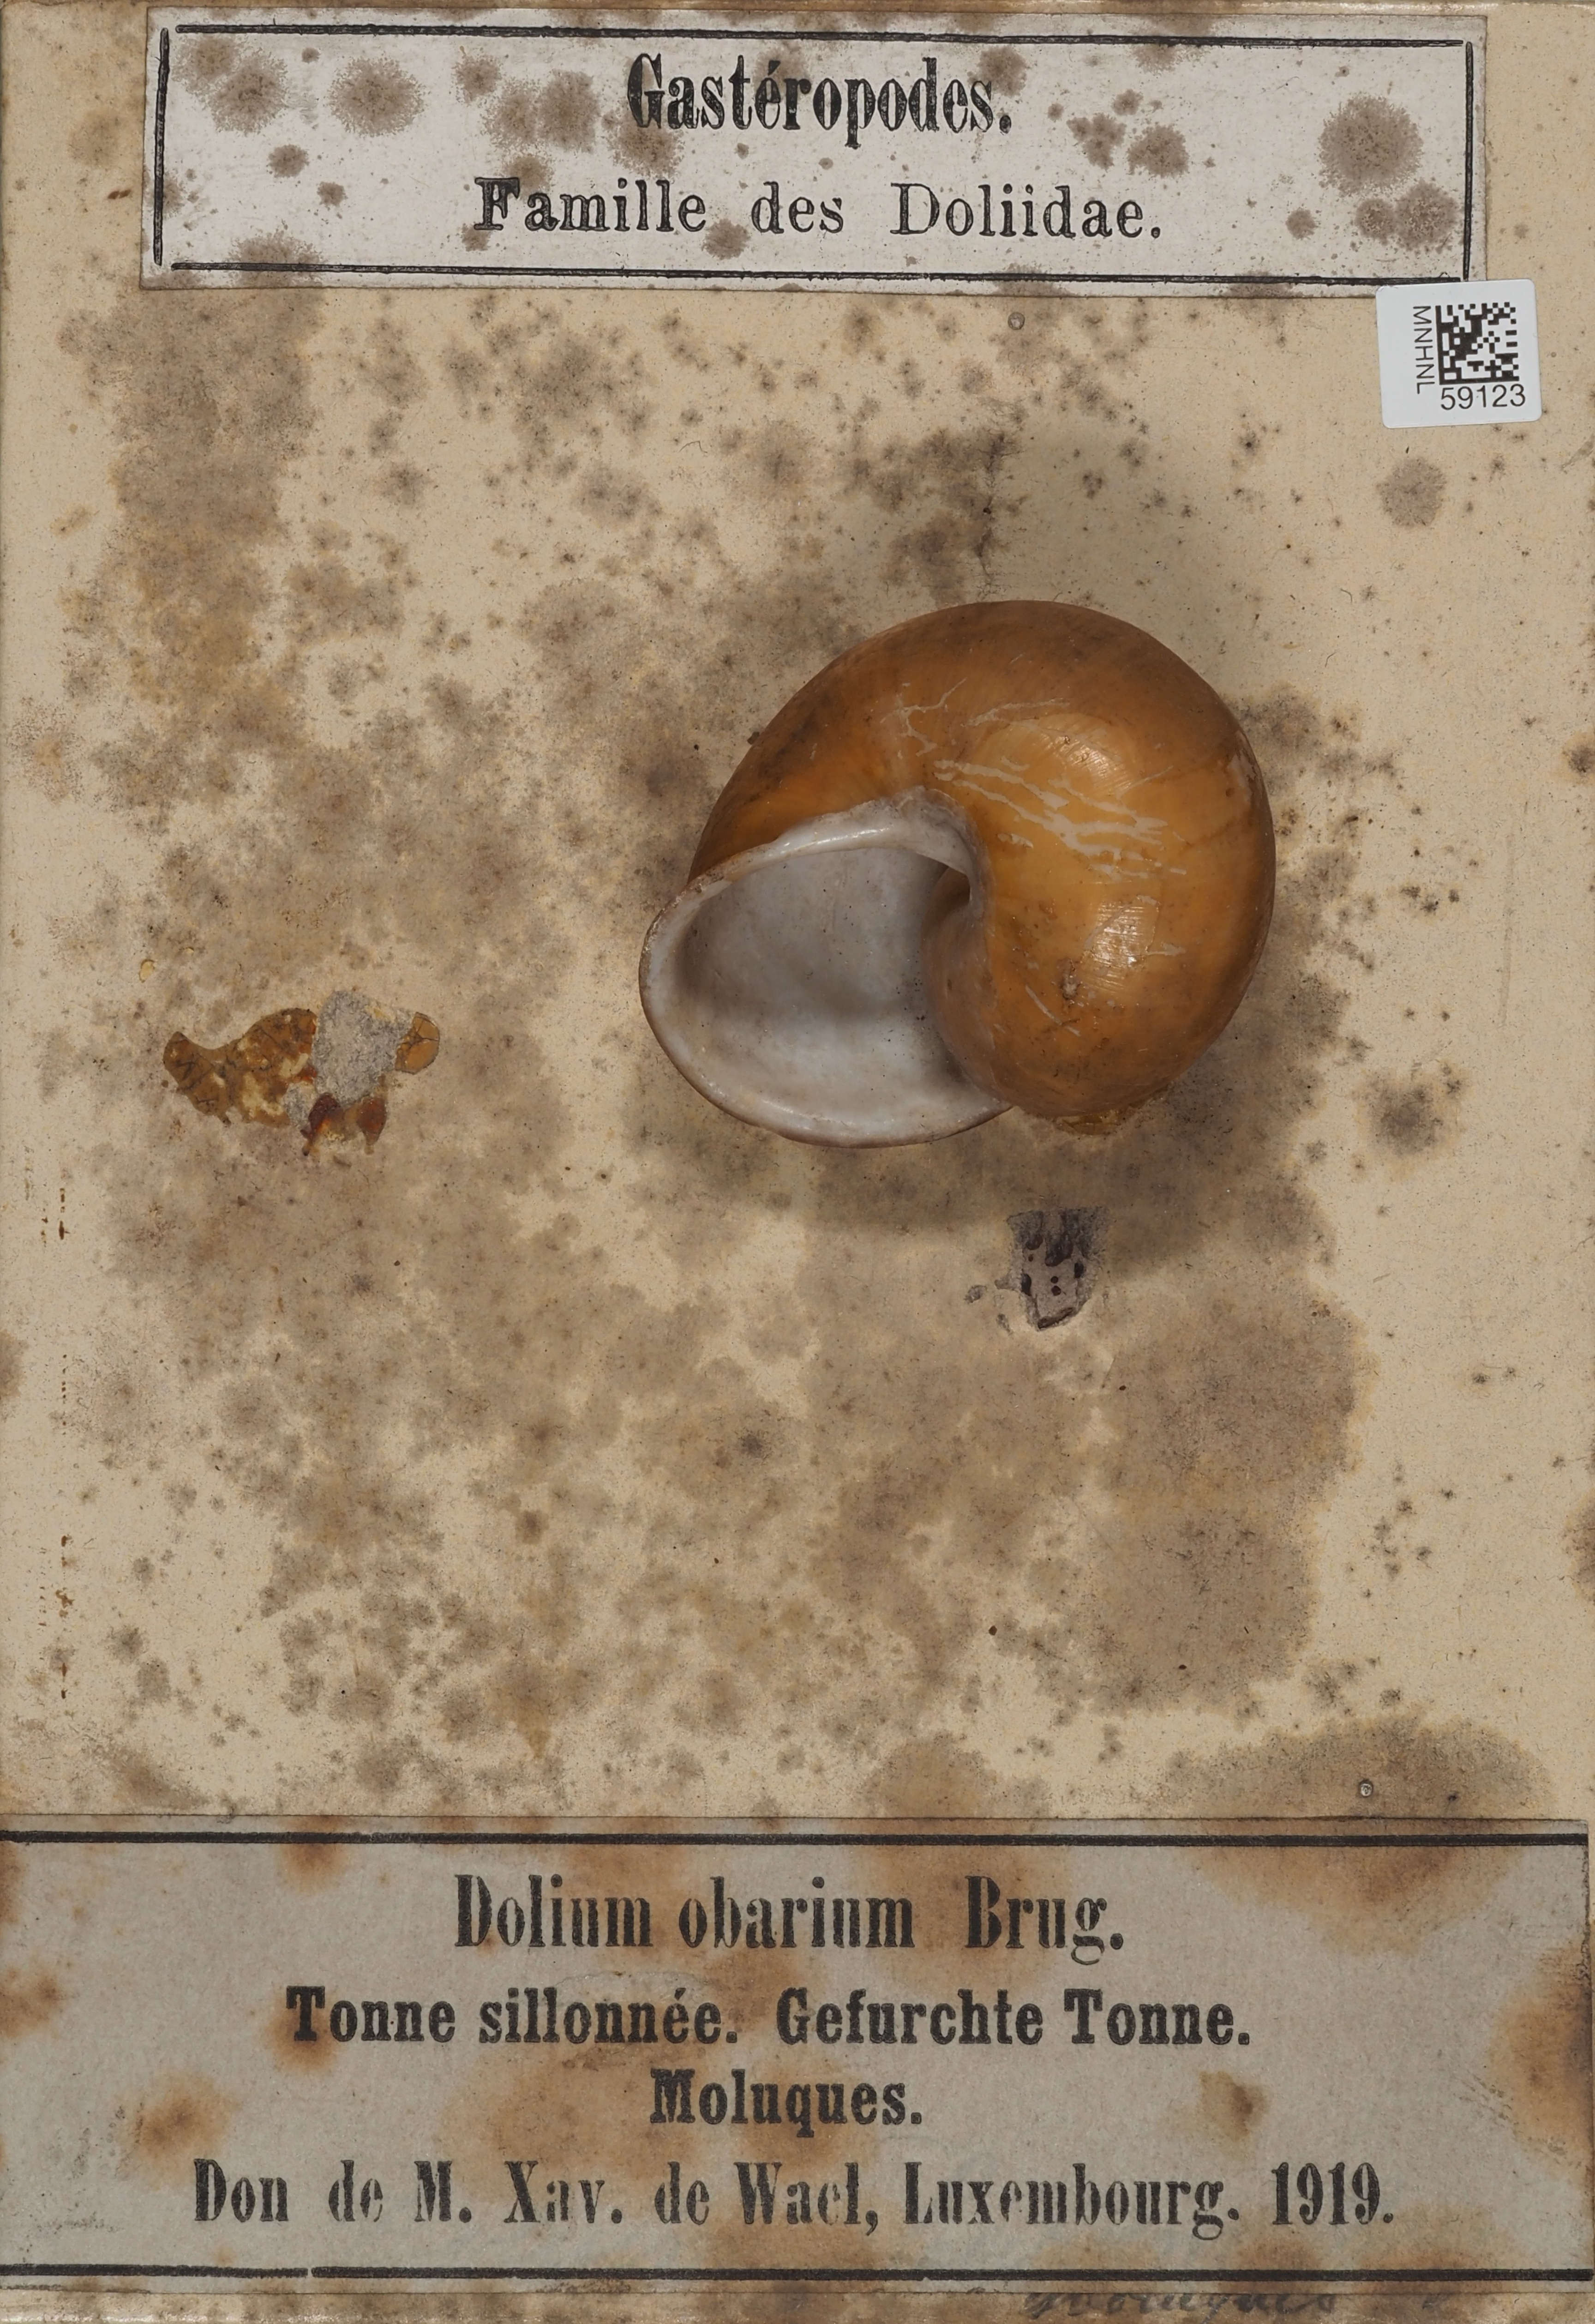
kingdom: Protozoa
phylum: Euglenozoa
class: Euglenoidea
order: Petalomonadida
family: Scytomonadidae
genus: Dolium
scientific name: Dolium
